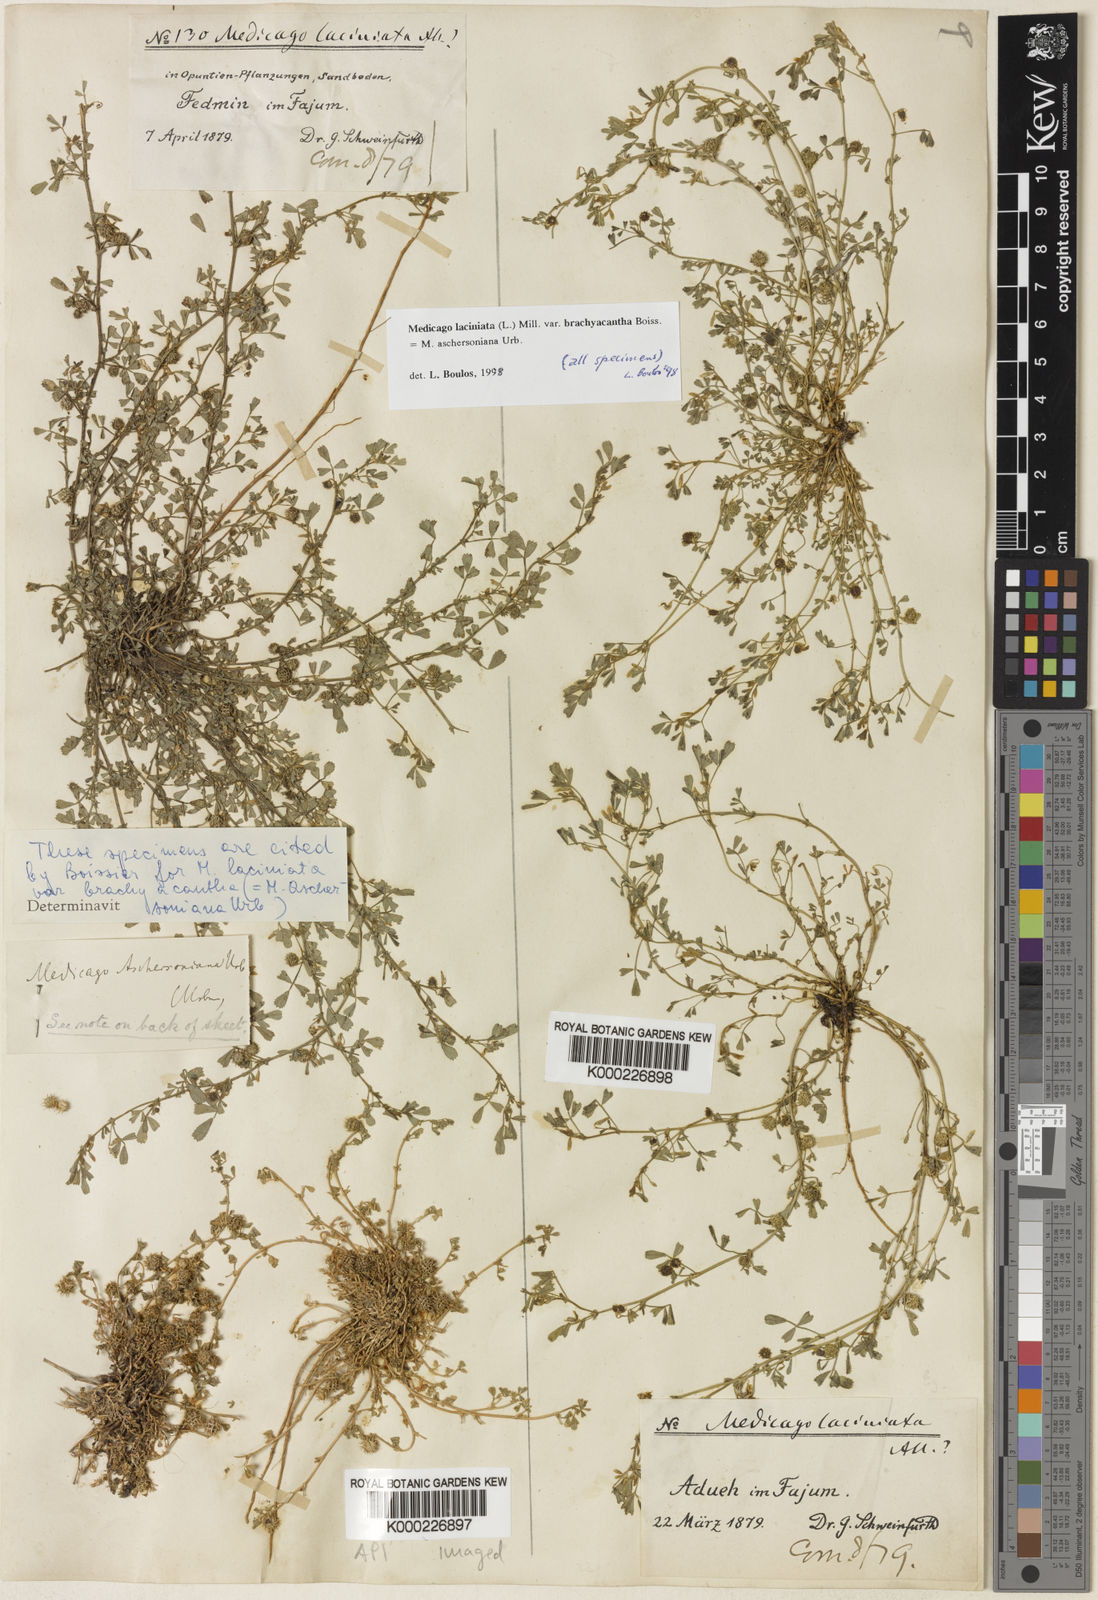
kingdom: Plantae
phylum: Tracheophyta
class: Magnoliopsida
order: Fabales
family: Fabaceae
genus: Medicago
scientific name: Medicago
